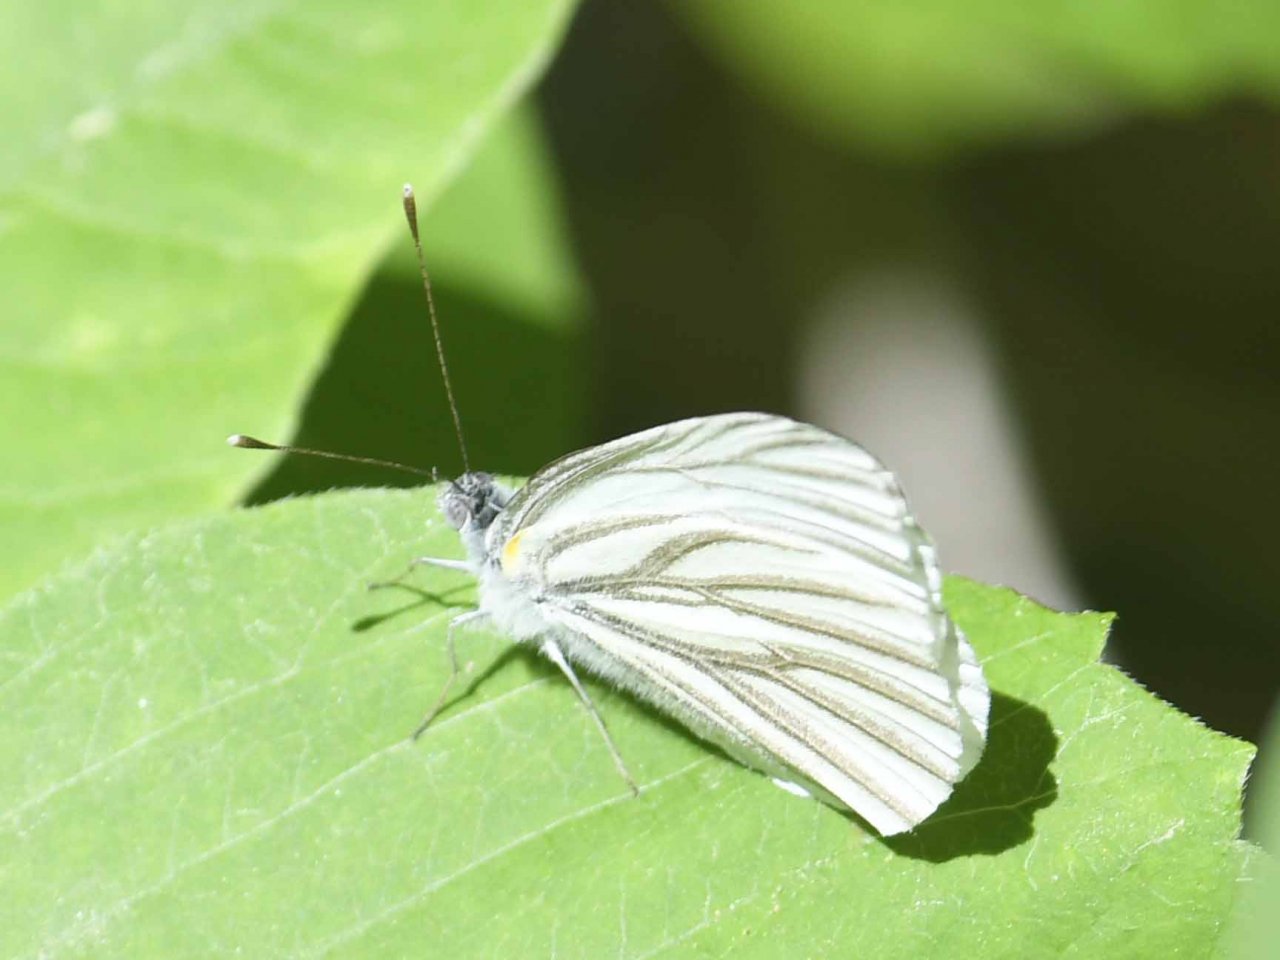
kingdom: Animalia
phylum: Arthropoda
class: Insecta
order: Lepidoptera
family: Pieridae
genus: Pieris
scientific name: Pieris oleracea
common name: Mustard White
